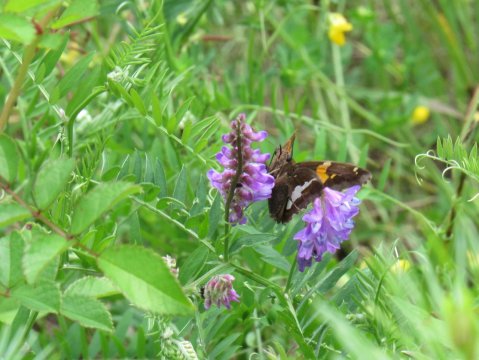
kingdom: Animalia
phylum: Arthropoda
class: Insecta
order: Lepidoptera
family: Hesperiidae
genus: Epargyreus
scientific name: Epargyreus clarus
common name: Silver-spotted Skipper
